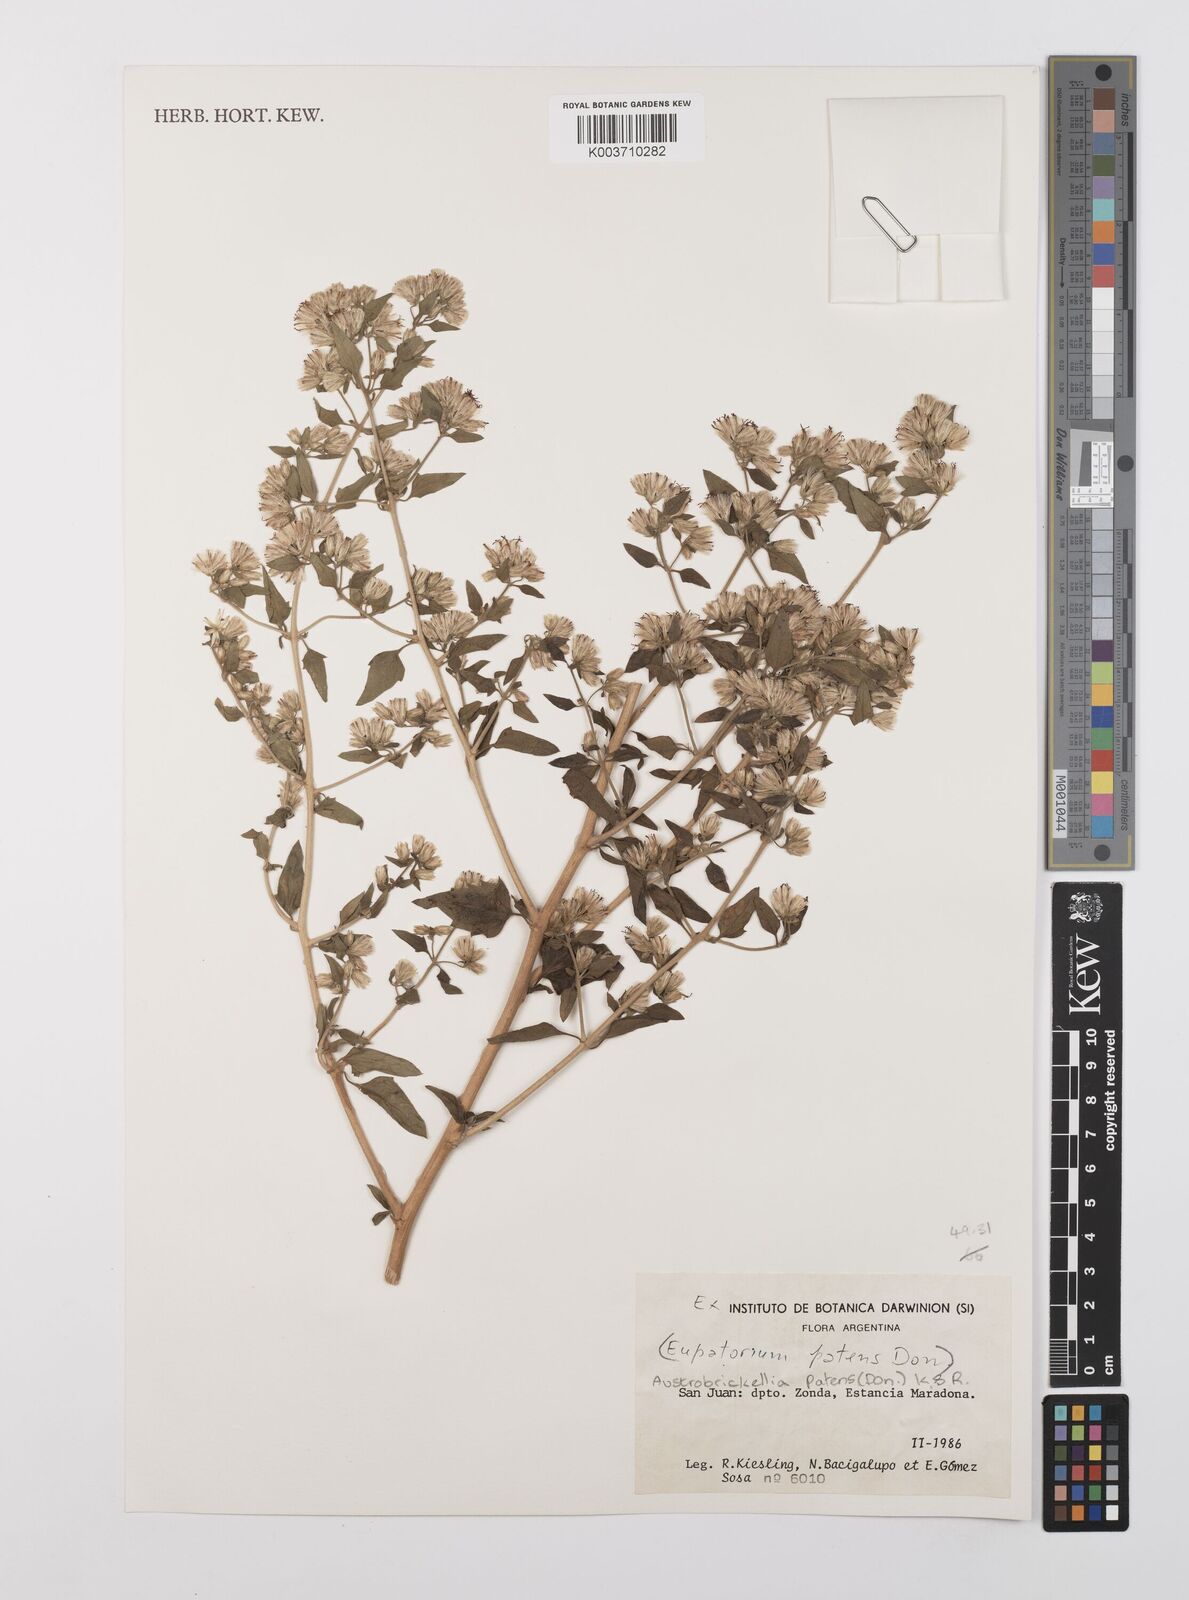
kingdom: Plantae
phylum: Tracheophyta
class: Magnoliopsida
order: Asterales
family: Asteraceae
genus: Austrobrickellia
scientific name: Austrobrickellia patens
